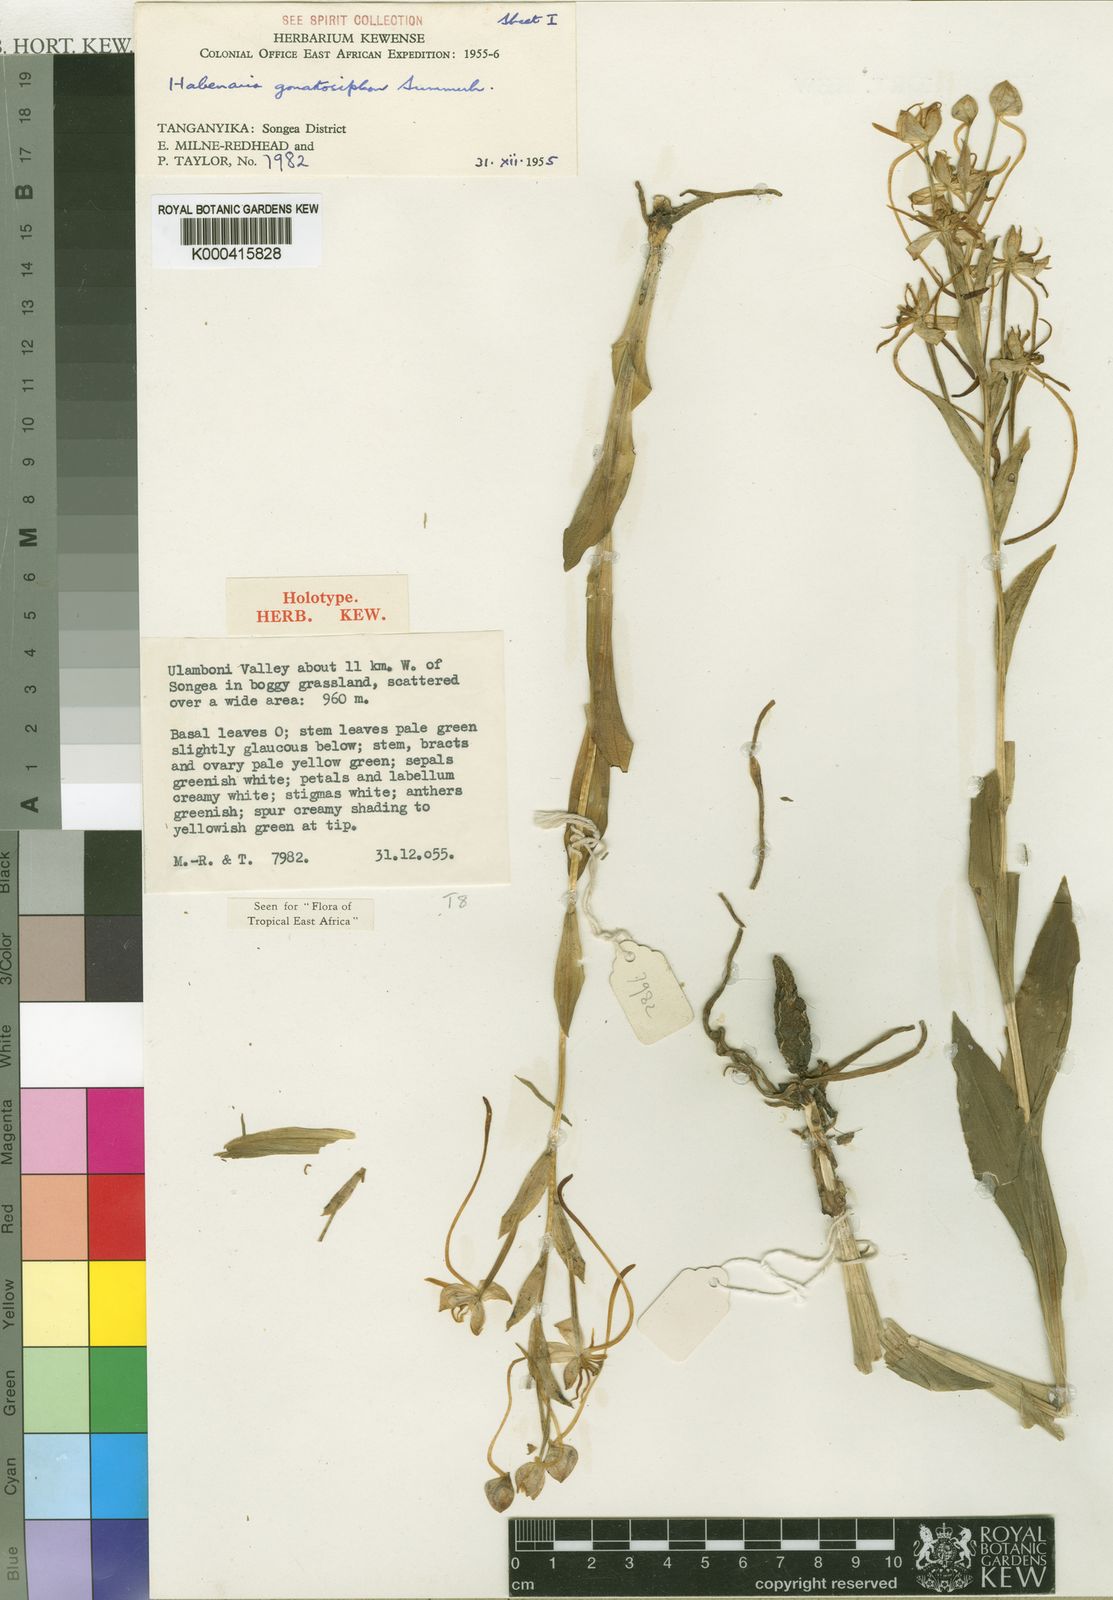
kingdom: Plantae
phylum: Tracheophyta
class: Liliopsida
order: Asparagales
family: Orchidaceae
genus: Habenaria
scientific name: Habenaria gonatosiphon
